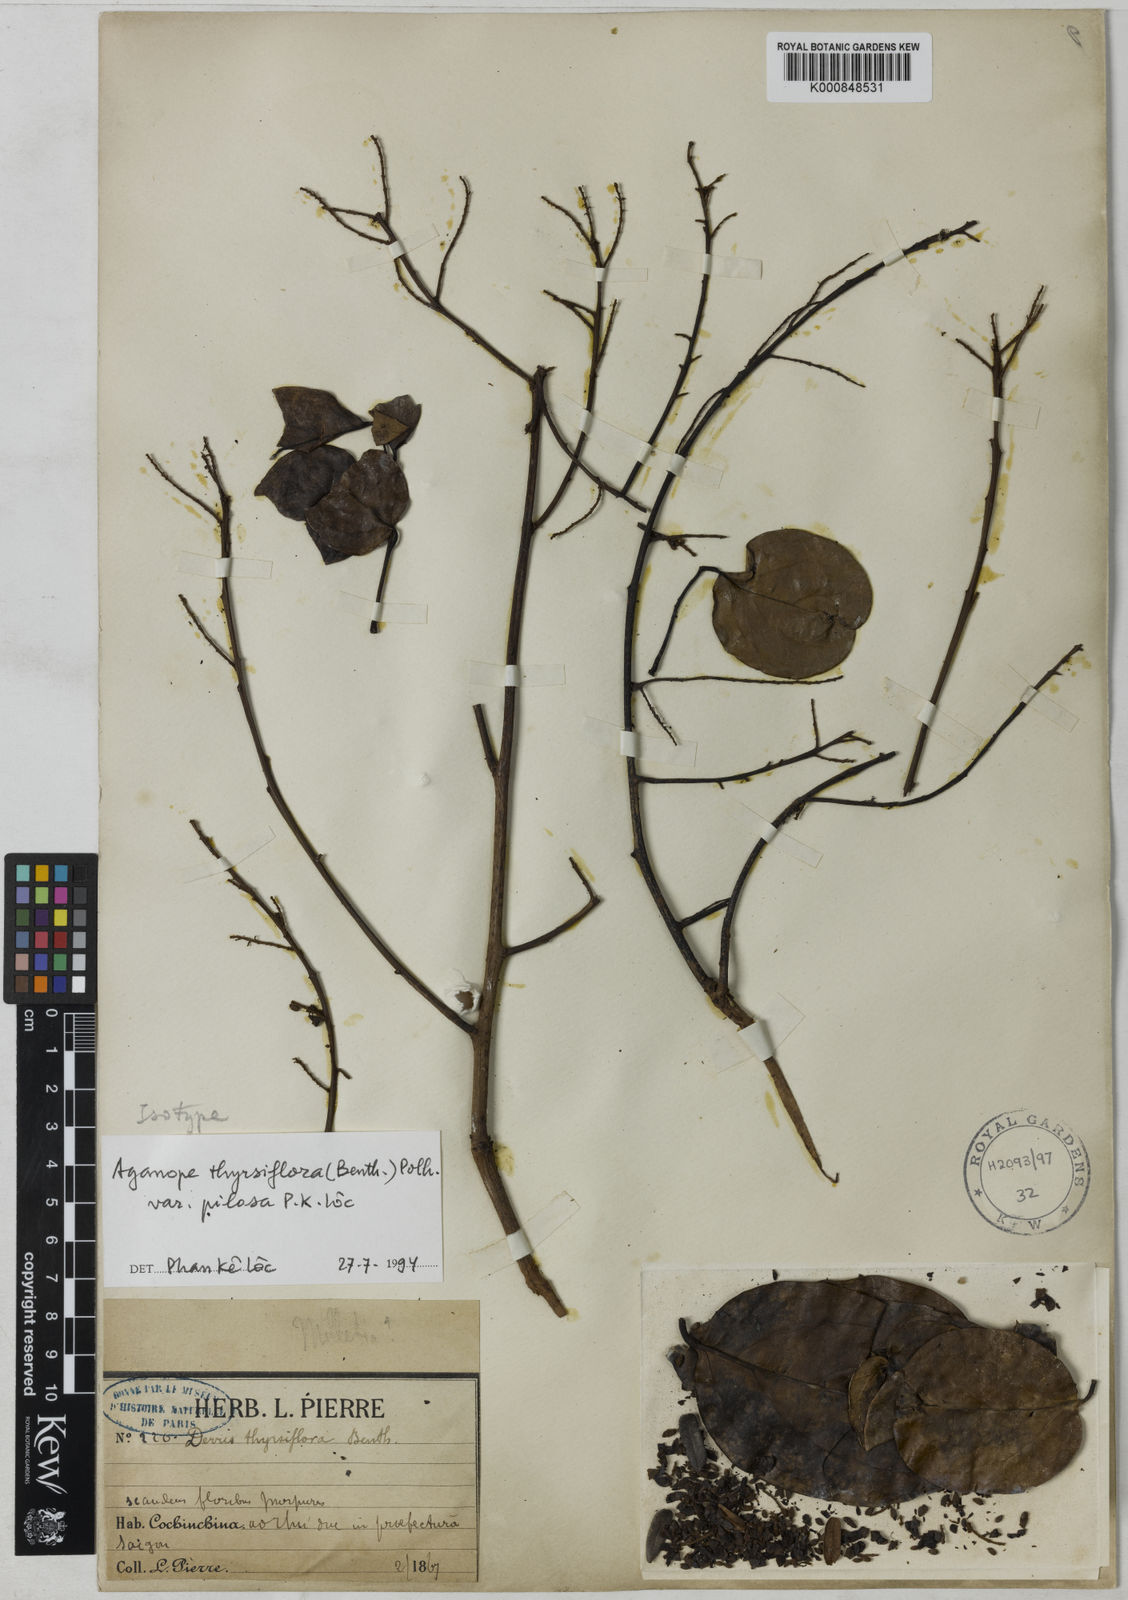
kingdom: Plantae
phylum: Tracheophyta
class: Magnoliopsida
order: Fabales
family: Fabaceae
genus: Aganope
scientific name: Aganope thyrsiflora
